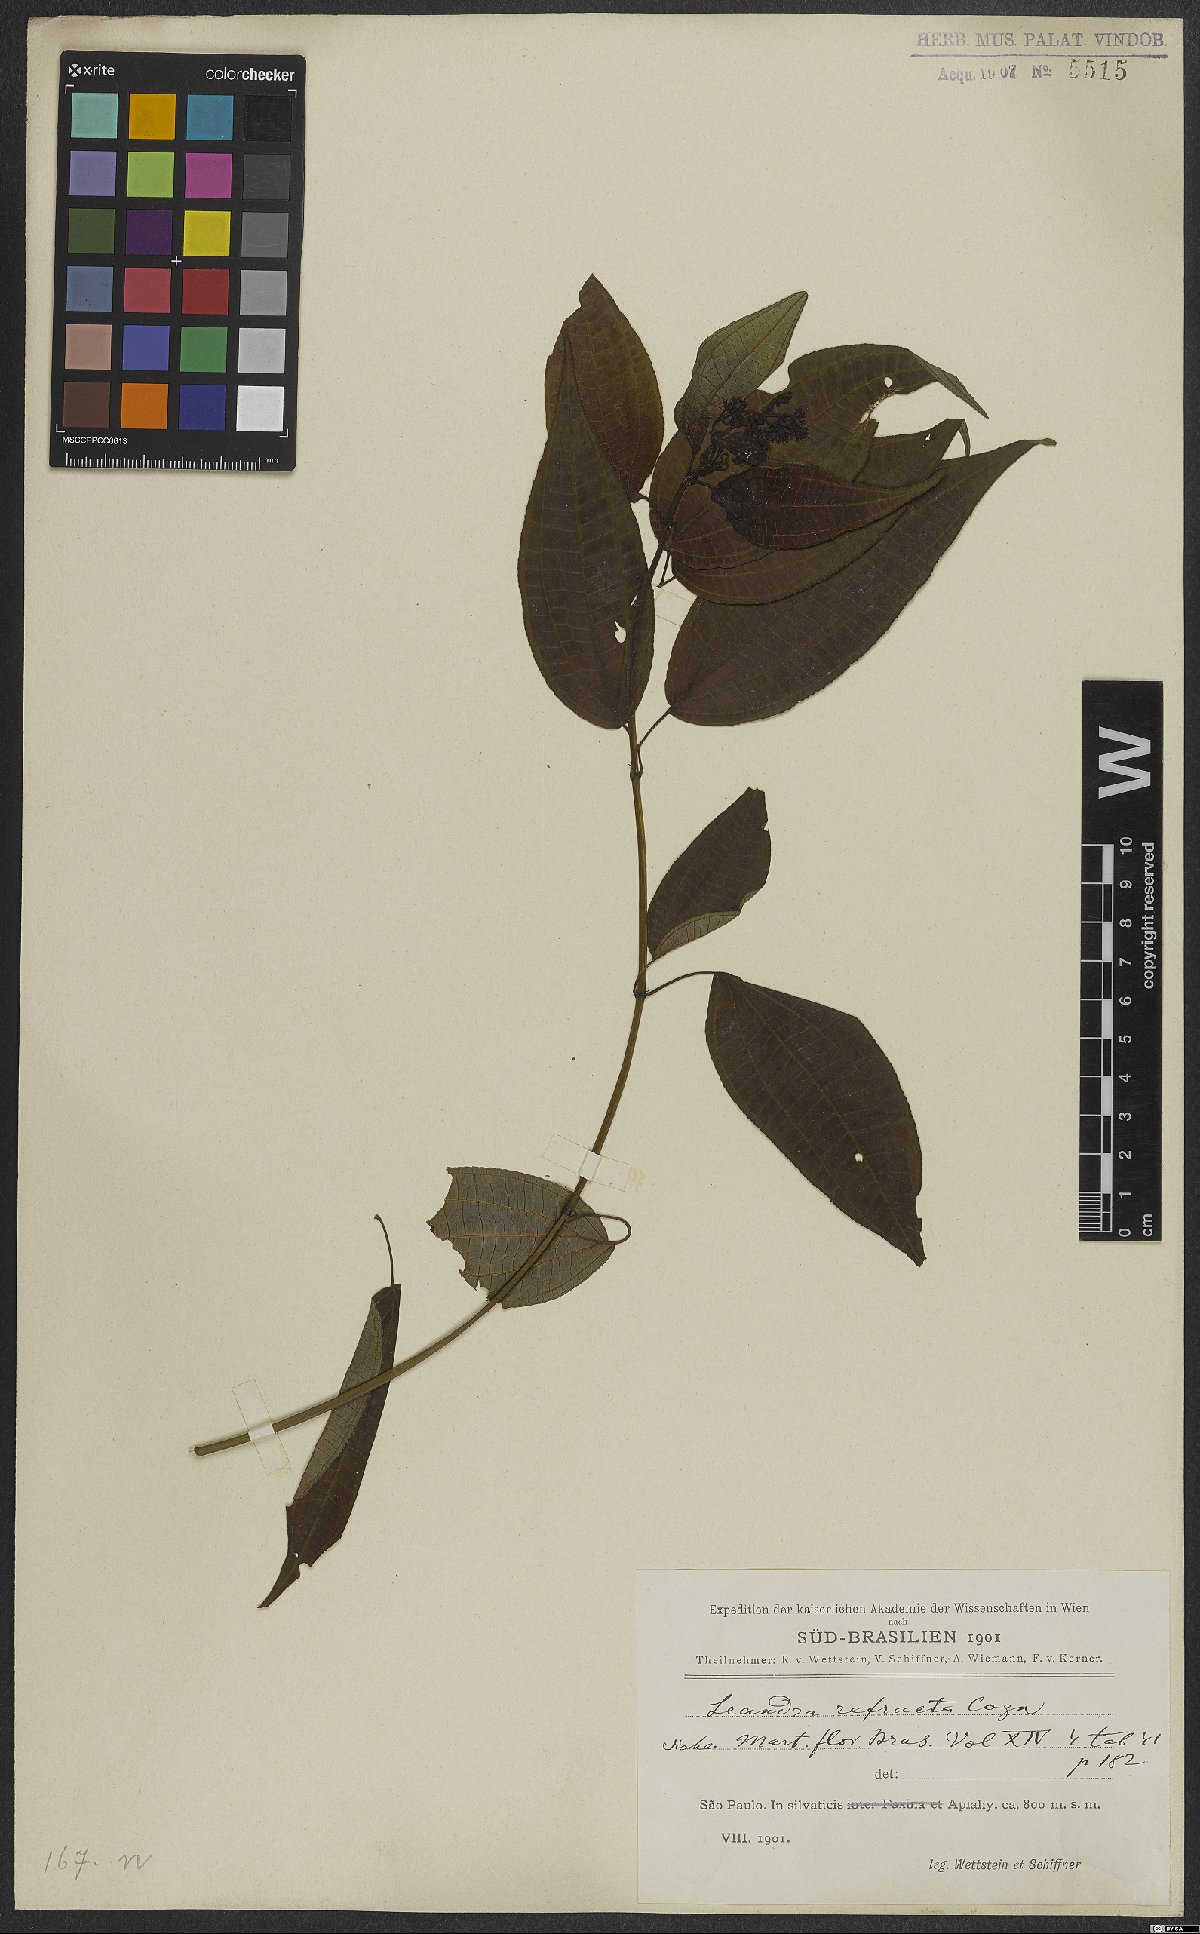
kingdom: Plantae
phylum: Tracheophyta
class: Magnoliopsida
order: Myrtales
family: Melastomataceae
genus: Miconia
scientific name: Miconia refracta
